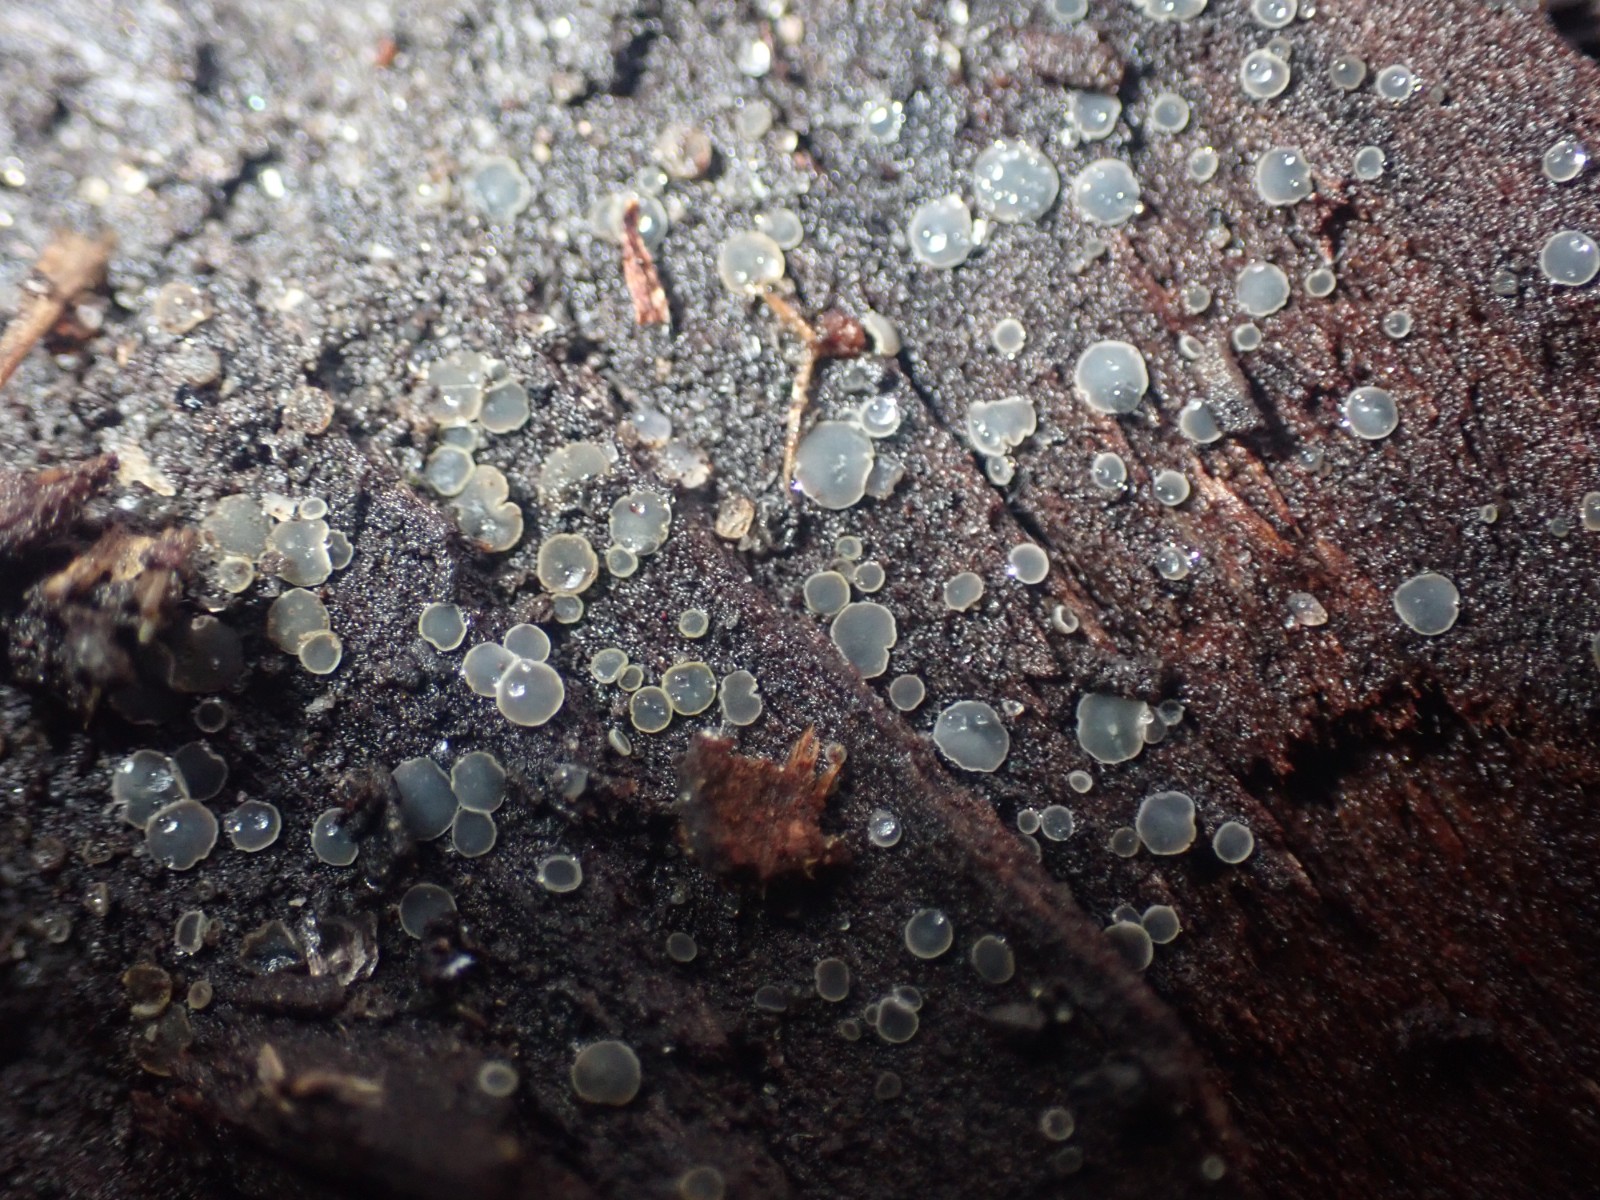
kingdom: Fungi
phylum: Ascomycota
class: Leotiomycetes
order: Helotiales
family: Mollisiaceae
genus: Mollisia
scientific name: Mollisia
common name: gråskive
